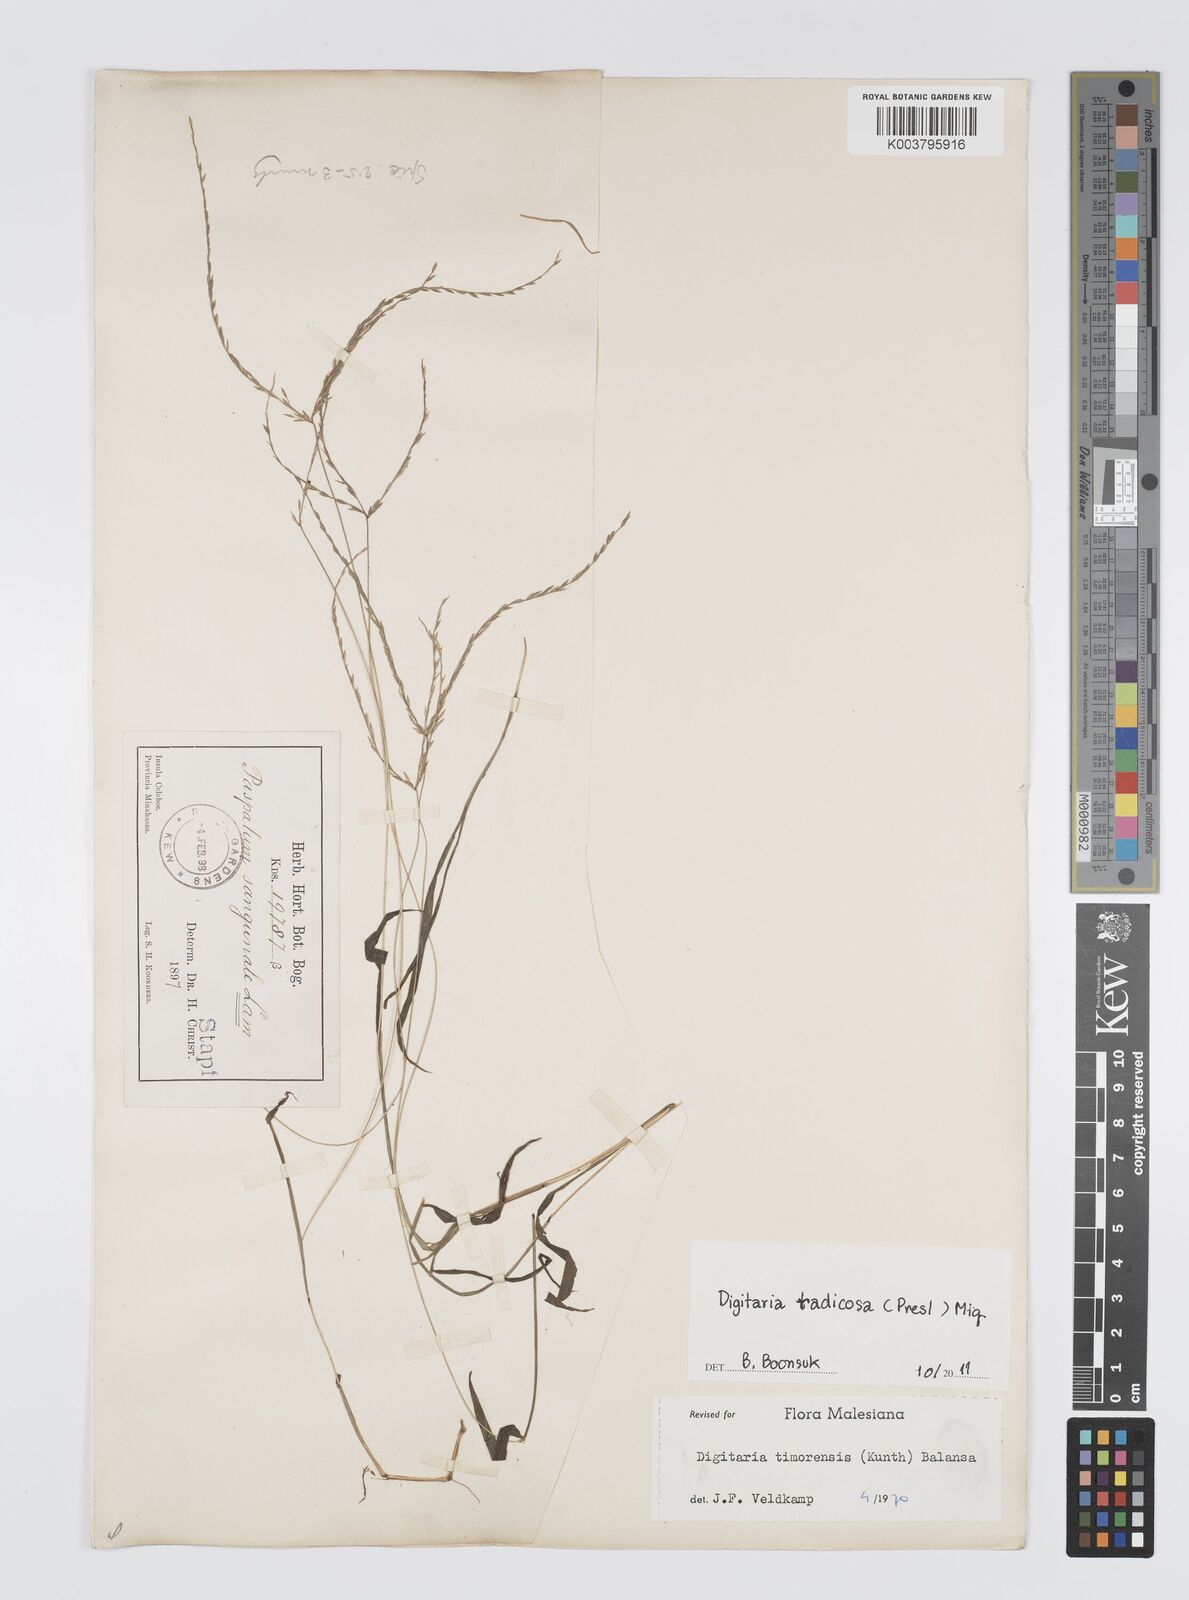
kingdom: Plantae
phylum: Tracheophyta
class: Liliopsida
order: Poales
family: Poaceae
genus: Digitaria
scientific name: Digitaria radicosa
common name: Trailing crabgrass
